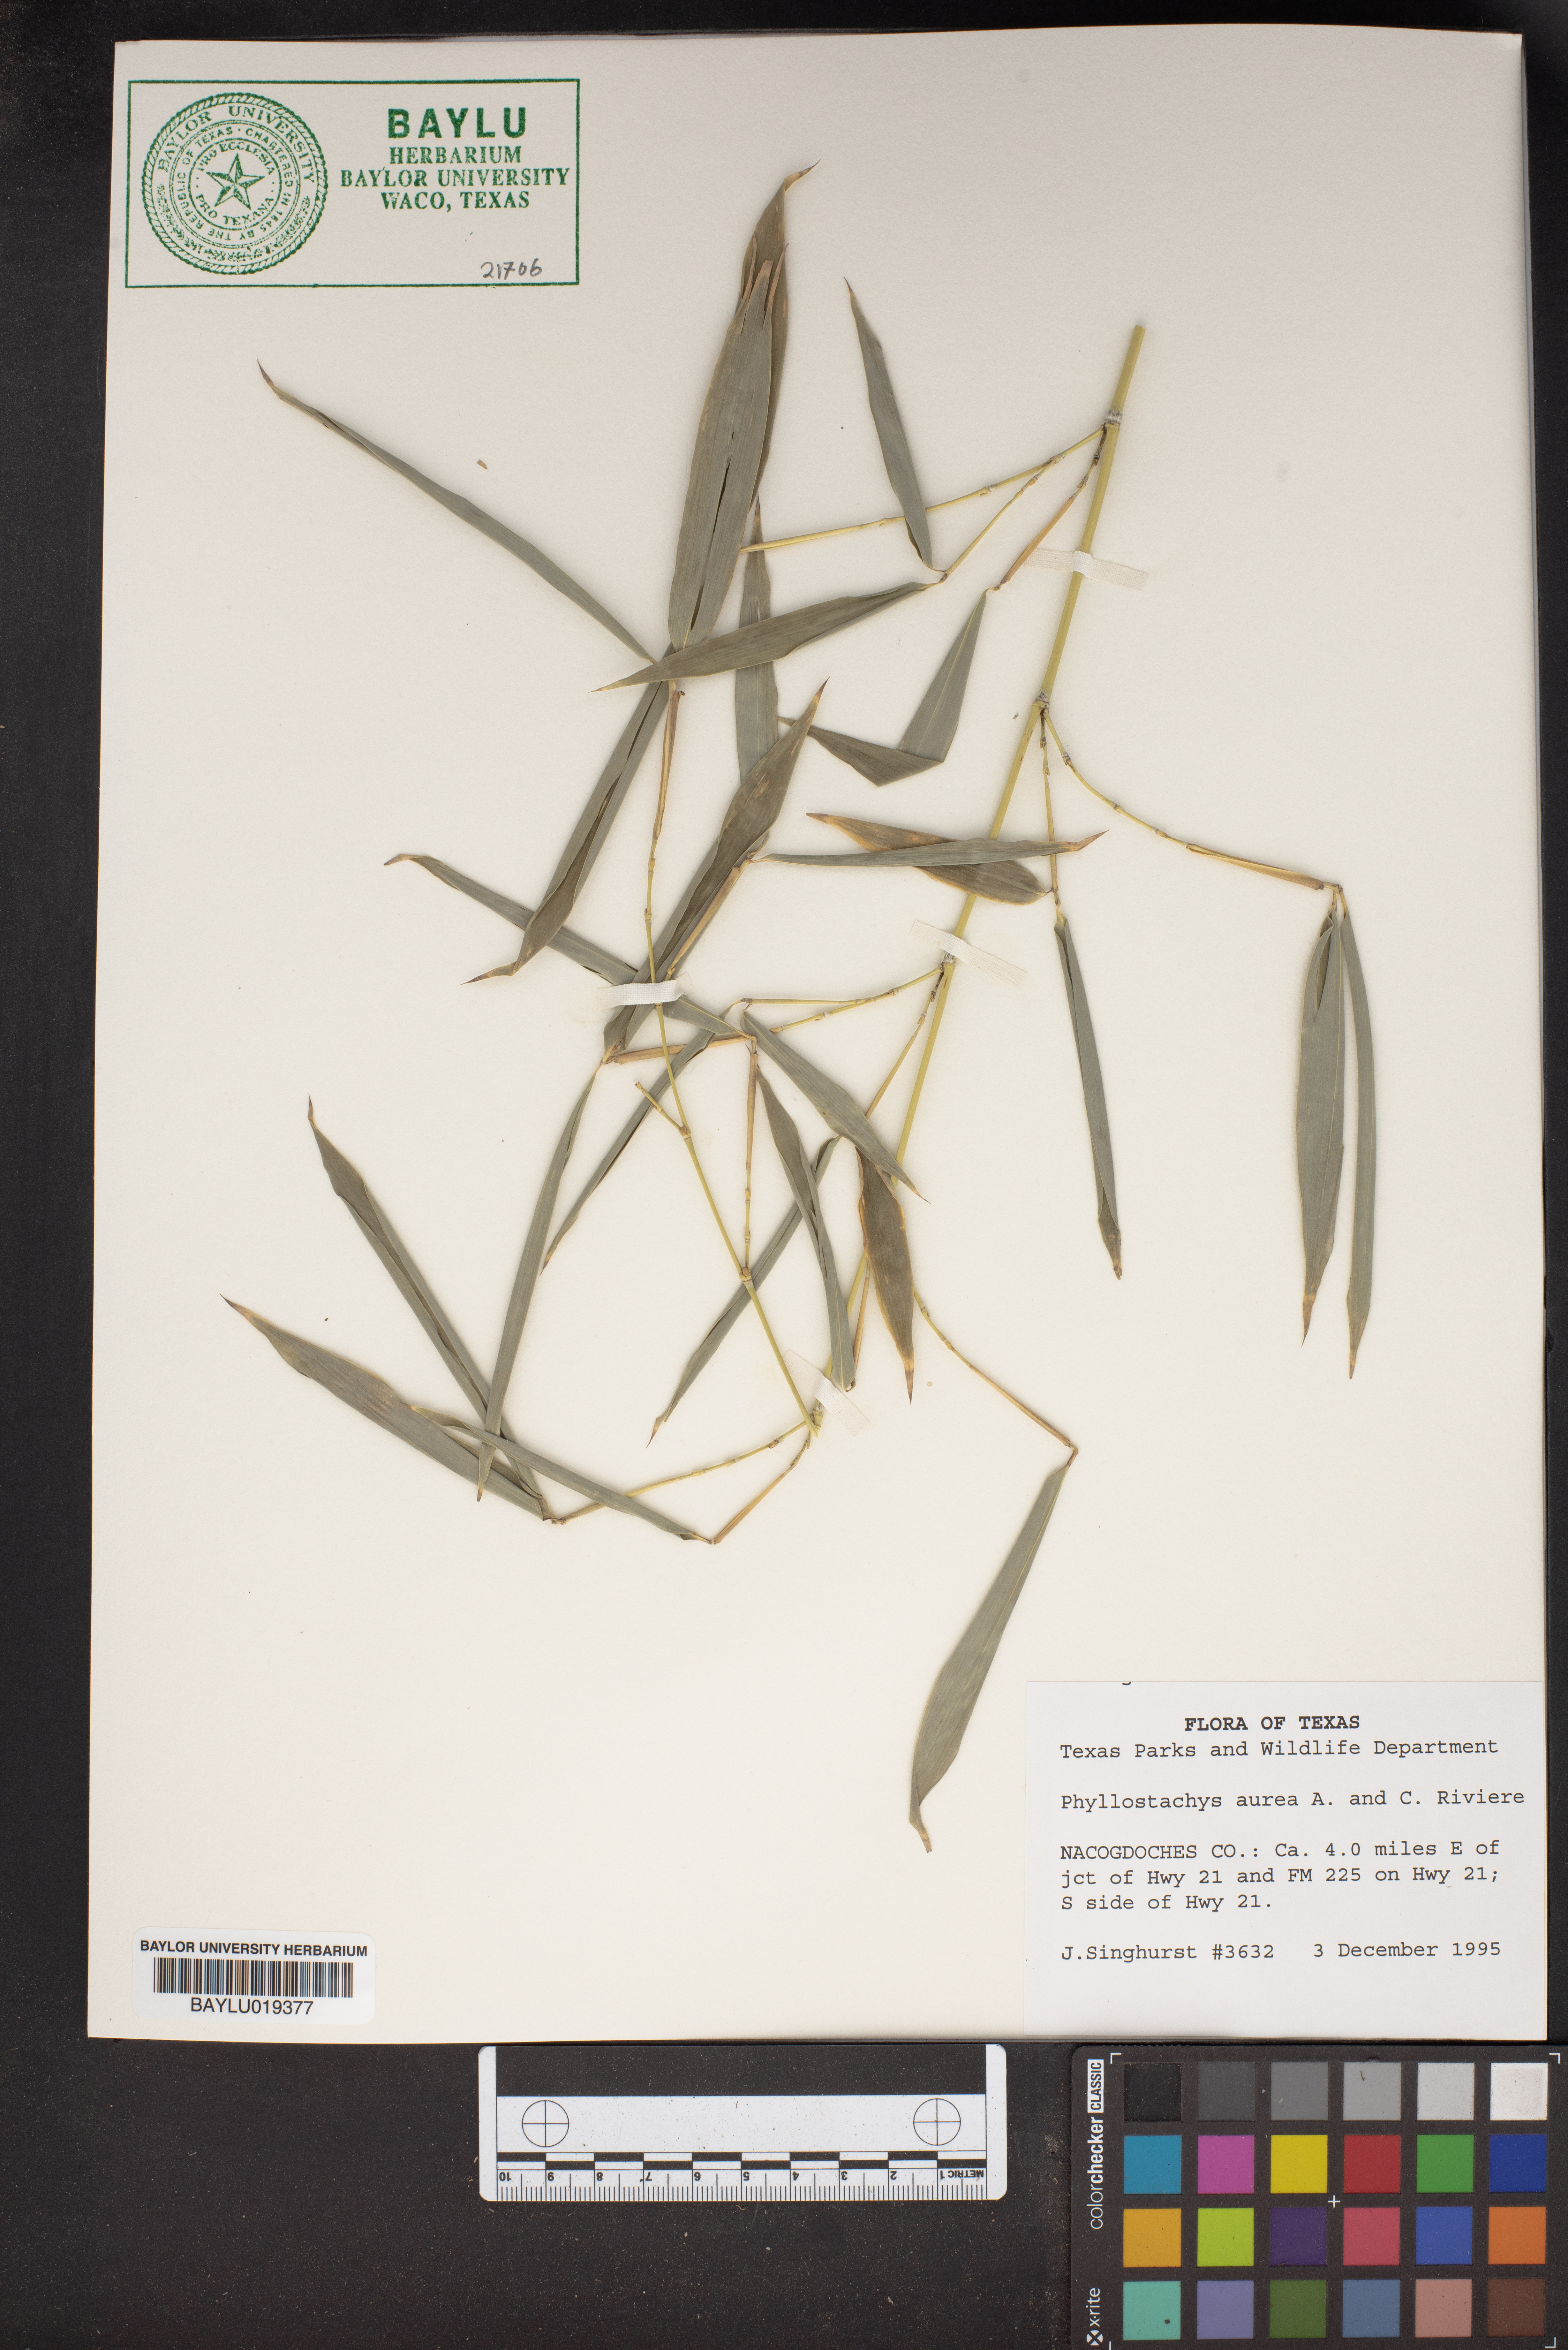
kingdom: Plantae
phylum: Tracheophyta
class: Liliopsida
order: Poales
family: Poaceae
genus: Phyllostachys
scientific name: Phyllostachys aurea
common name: Golden bamboo
